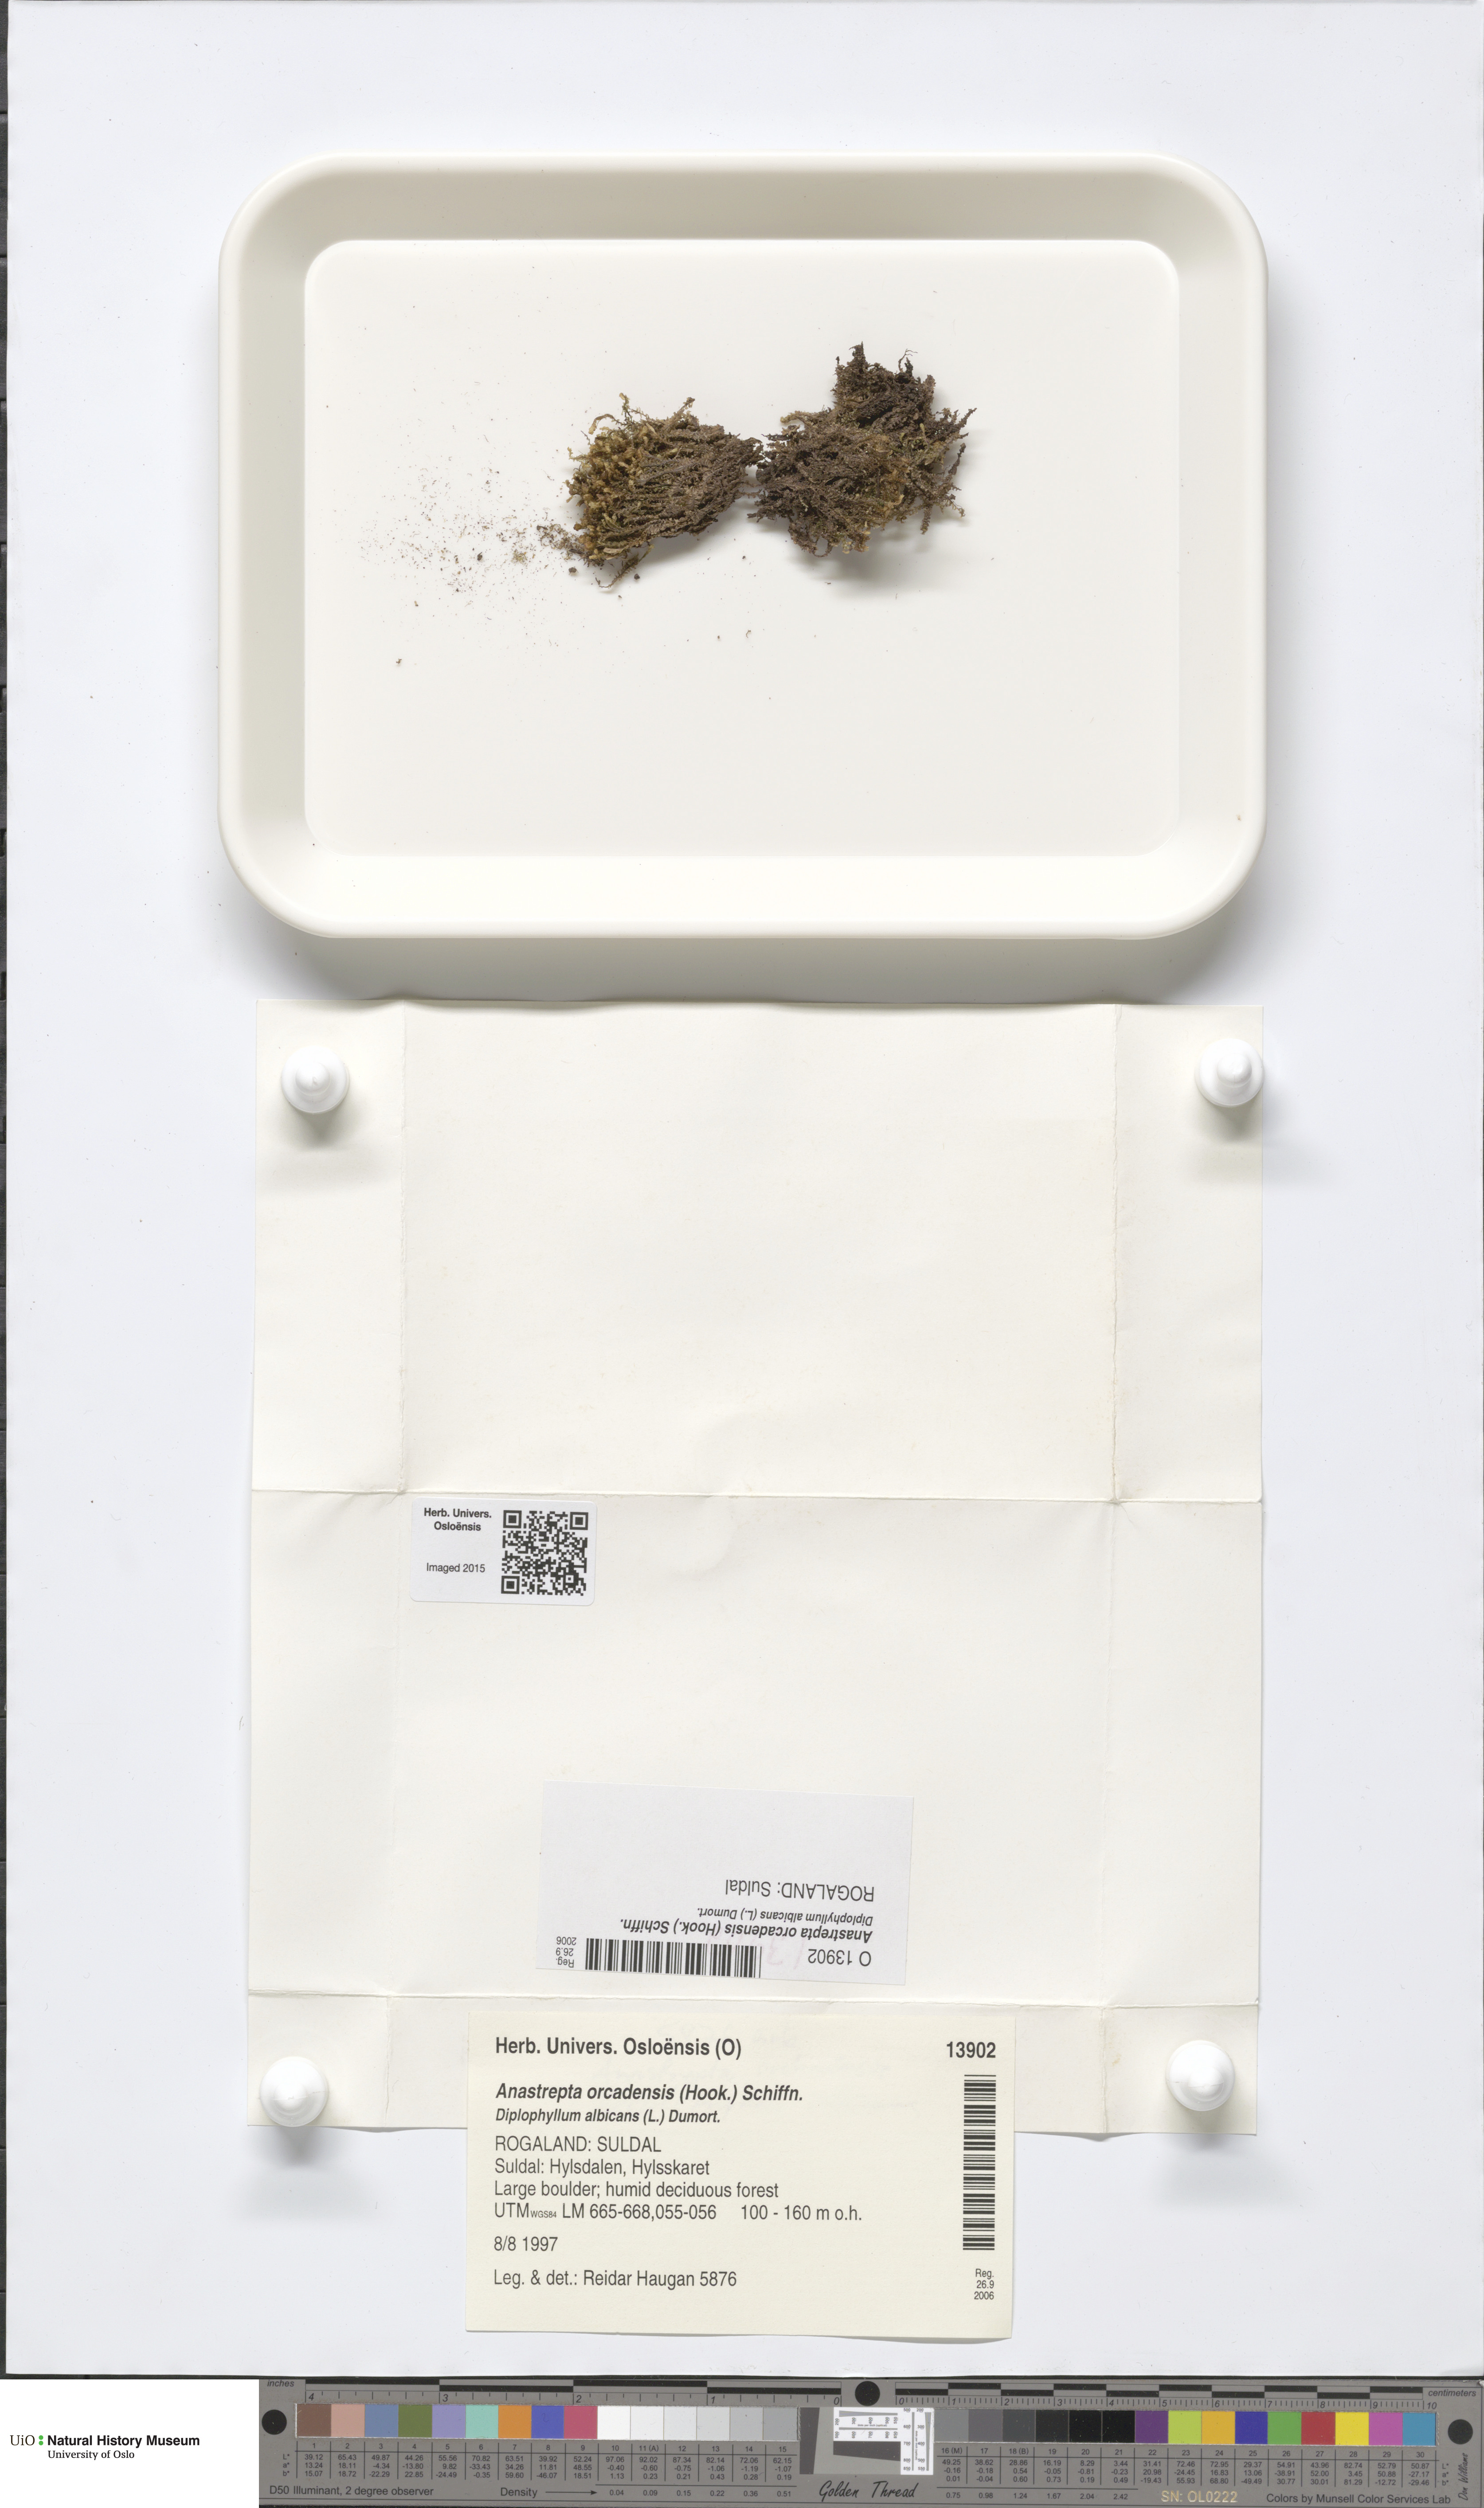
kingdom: Plantae
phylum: Marchantiophyta
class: Jungermanniopsida
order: Jungermanniales
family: Anastrophyllaceae
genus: Anastrepta
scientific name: Anastrepta orcadensis
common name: Orkney notchwort
